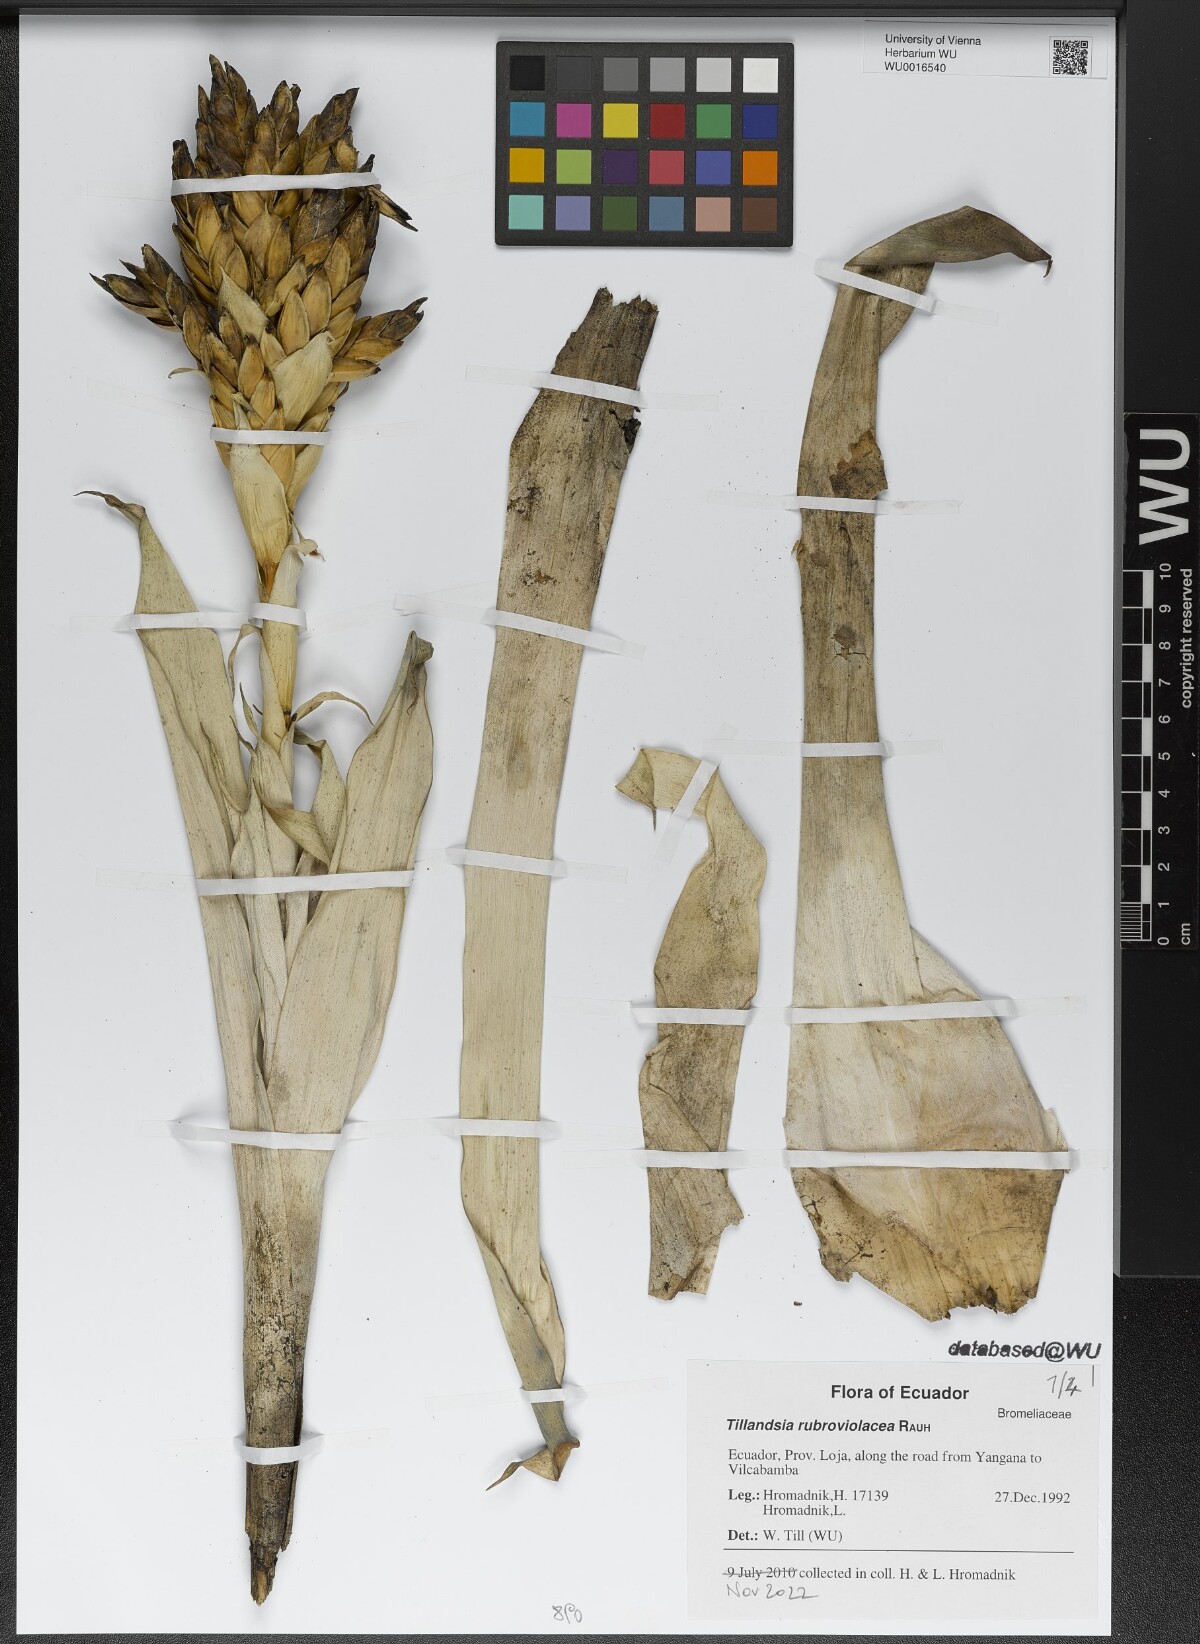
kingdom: Plantae
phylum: Tracheophyta
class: Liliopsida
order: Poales
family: Bromeliaceae
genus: Tillandsia
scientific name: Tillandsia rubroviolacea
